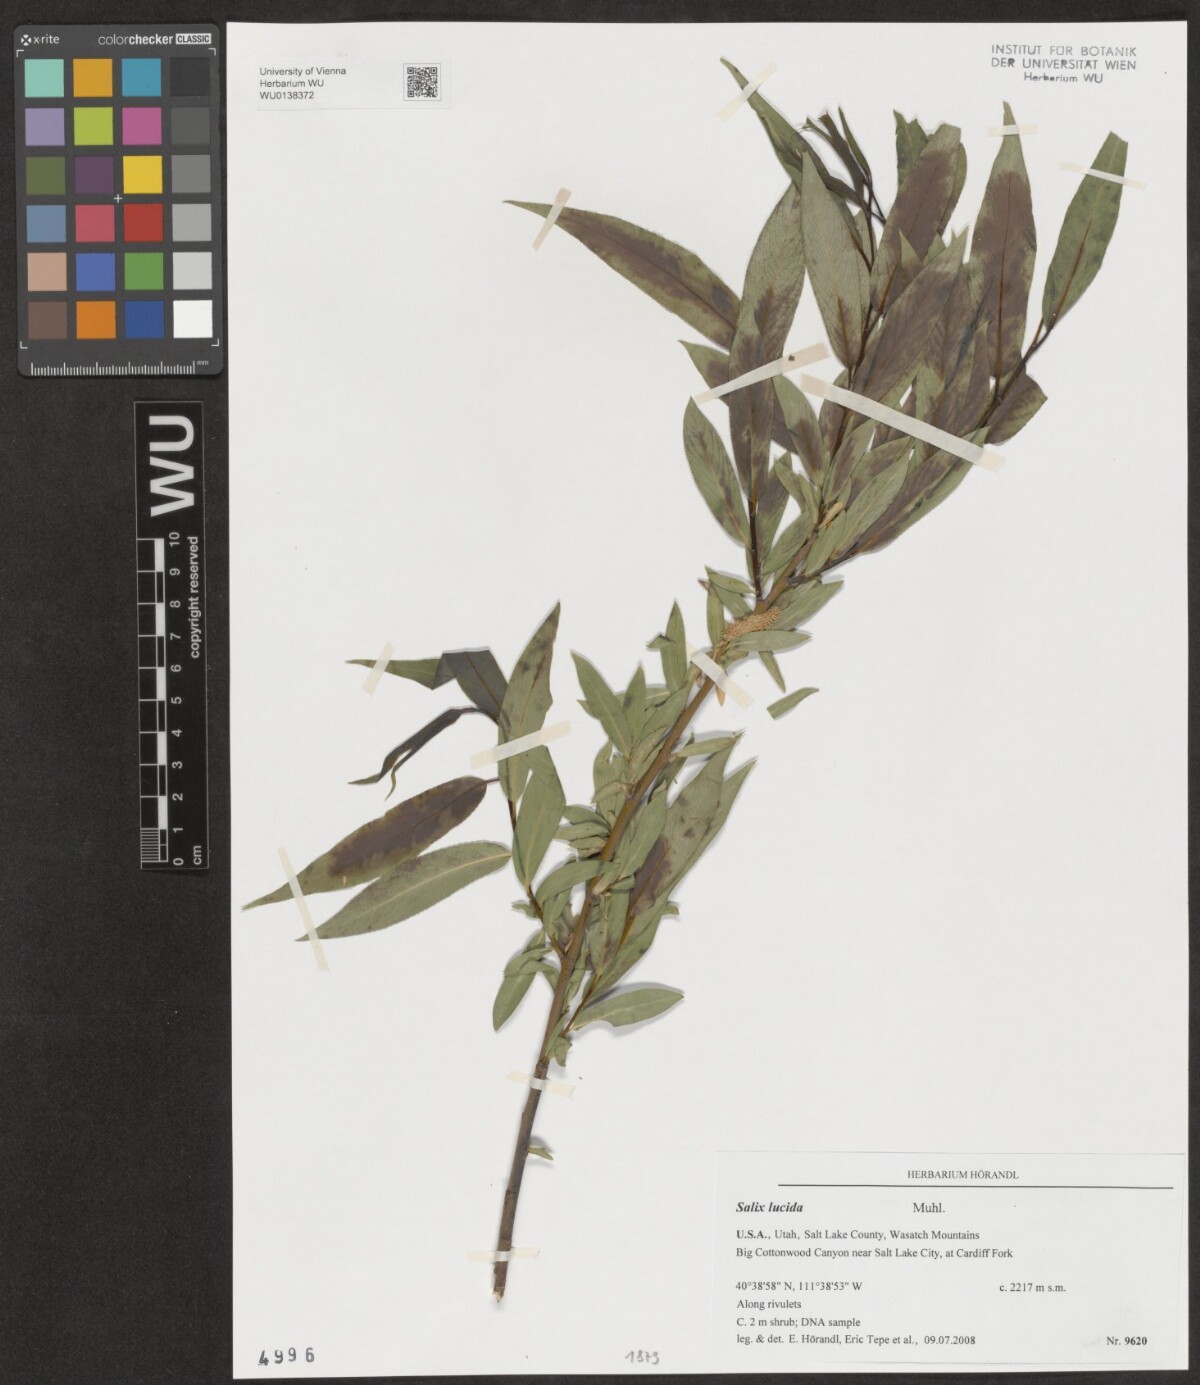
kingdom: Plantae
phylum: Tracheophyta
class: Magnoliopsida
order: Malpighiales
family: Salicaceae
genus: Salix
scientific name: Salix lucida
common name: Shining willow
